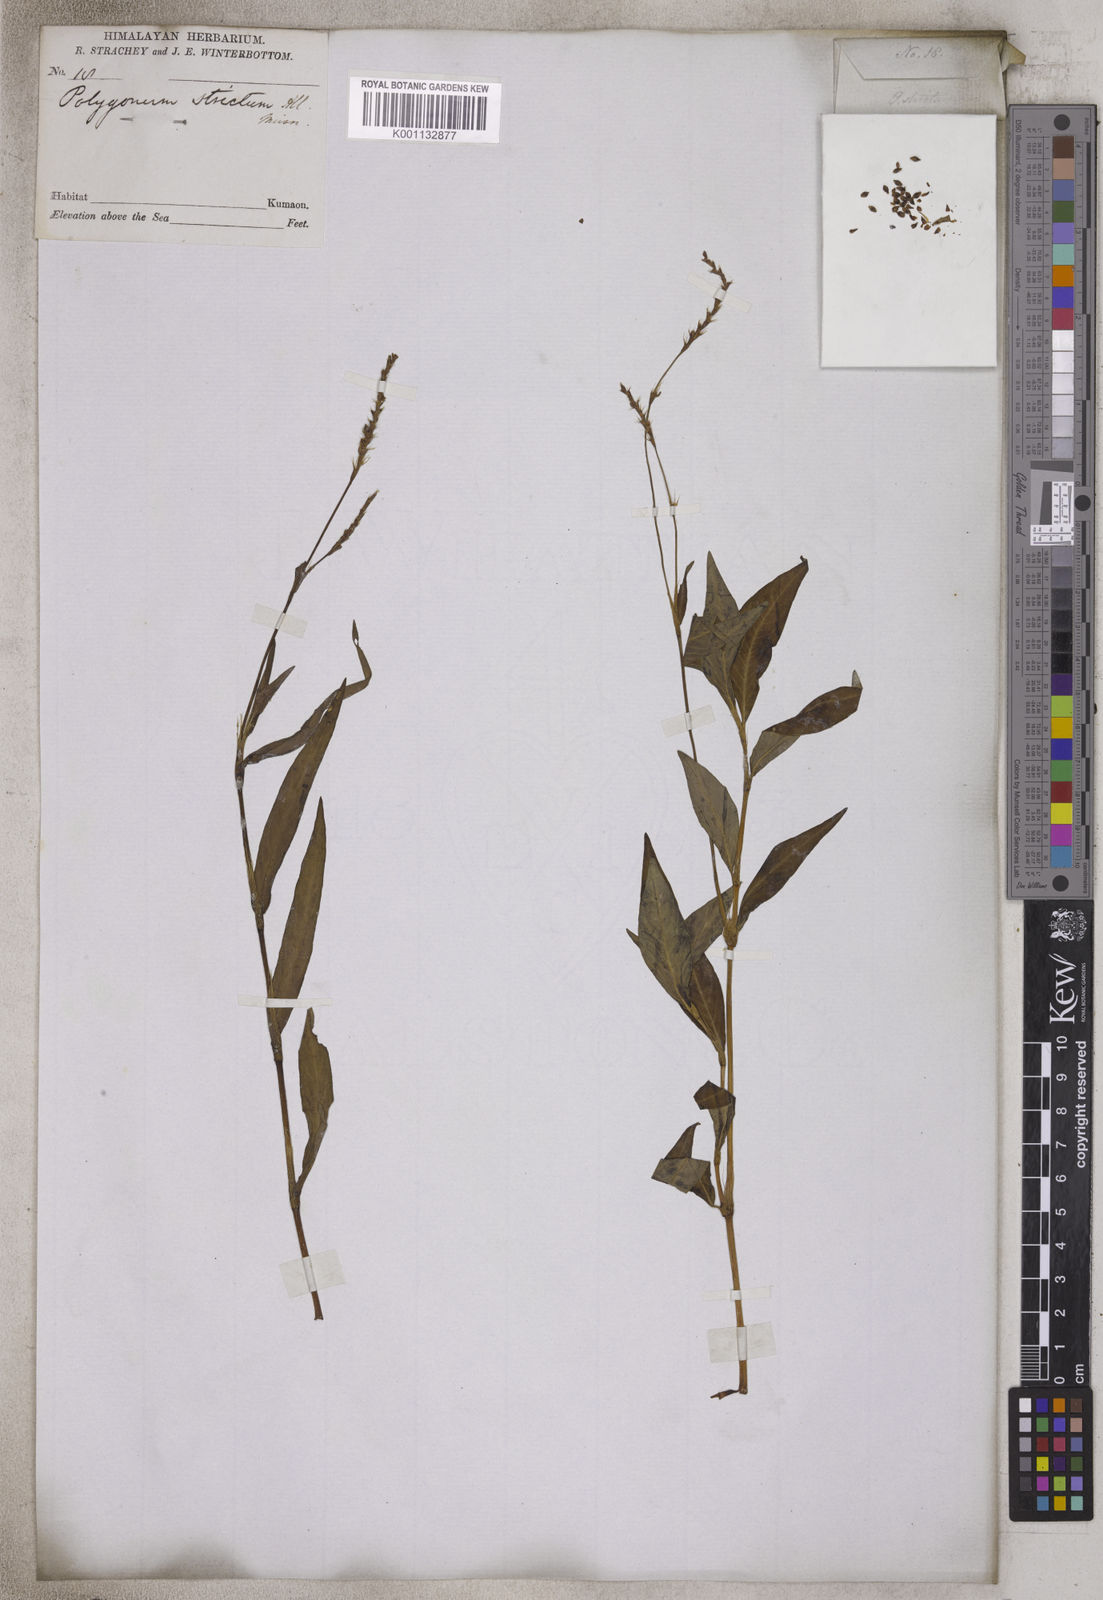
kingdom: Plantae
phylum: Tracheophyta
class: Magnoliopsida
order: Caryophyllales
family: Polygonaceae
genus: Persicaria
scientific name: Persicaria minor
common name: Small water-pepper
